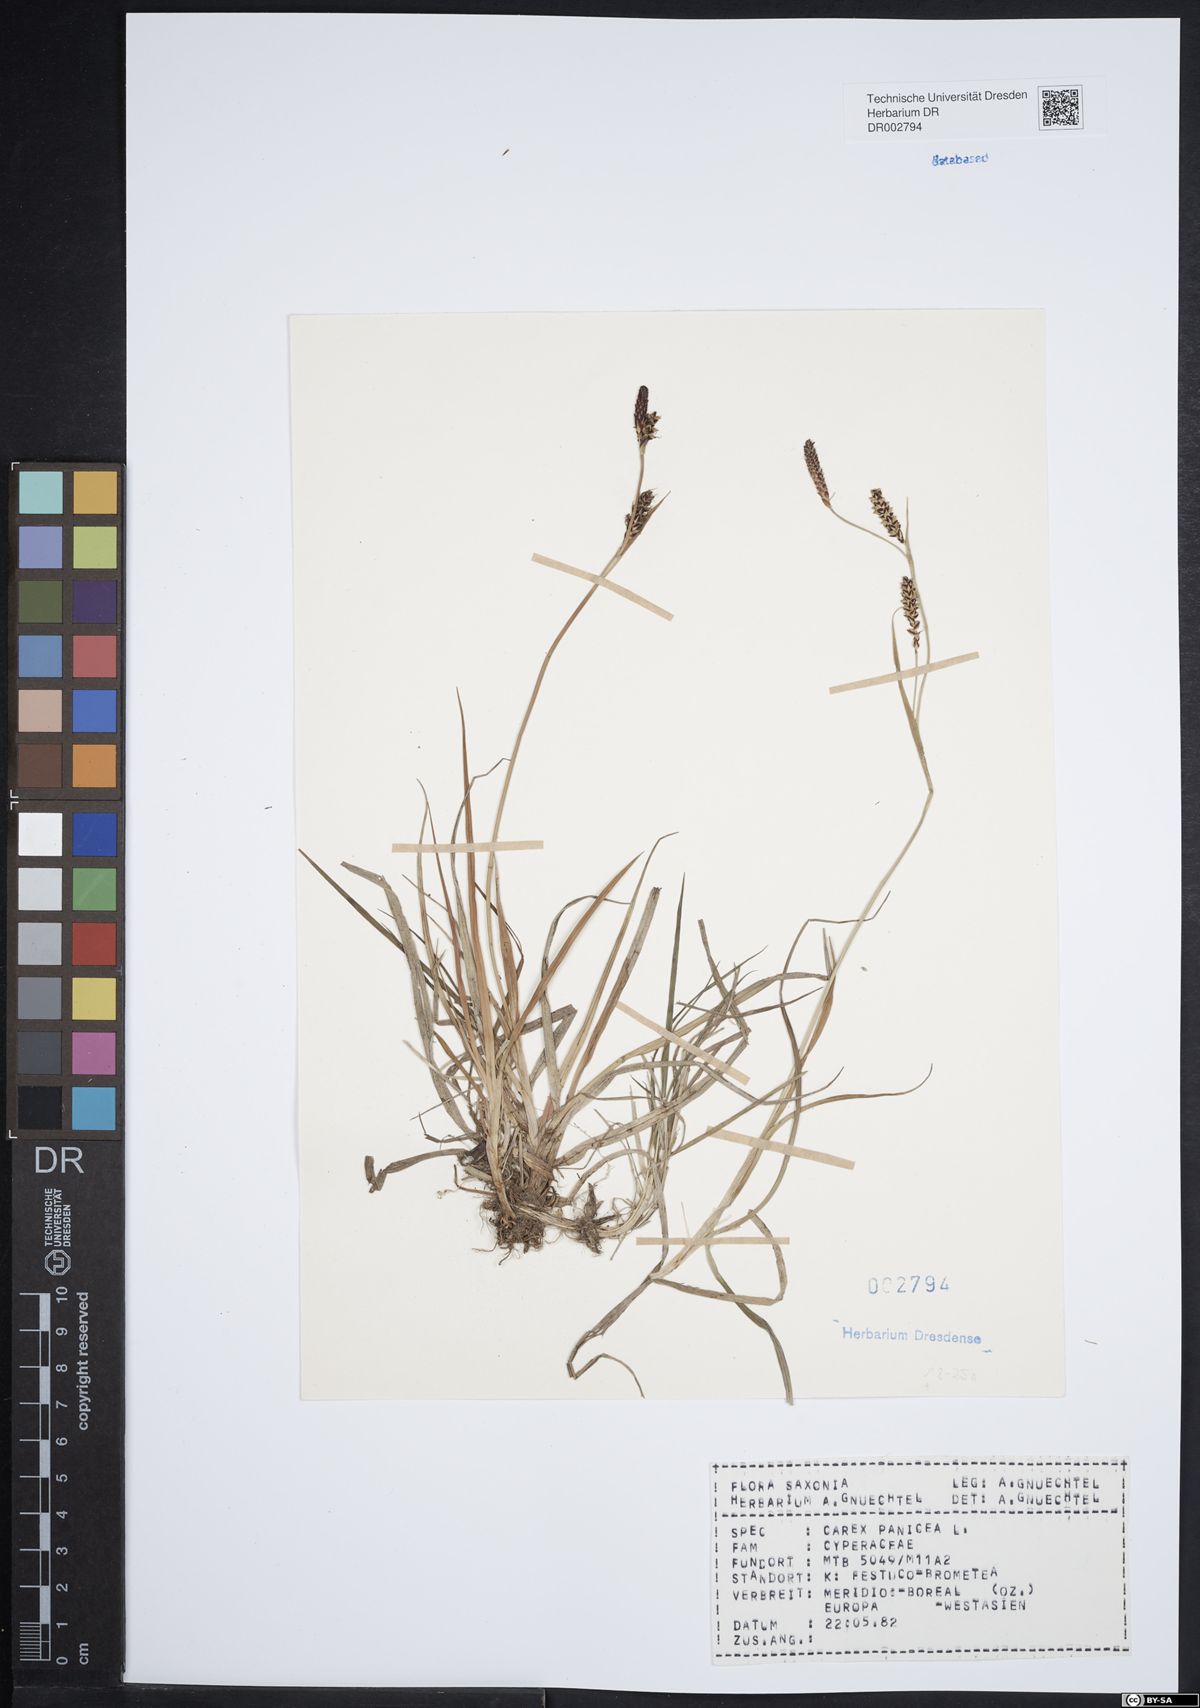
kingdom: Plantae
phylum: Tracheophyta
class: Liliopsida
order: Poales
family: Cyperaceae
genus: Carex
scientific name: Carex panicea
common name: Carnation sedge
